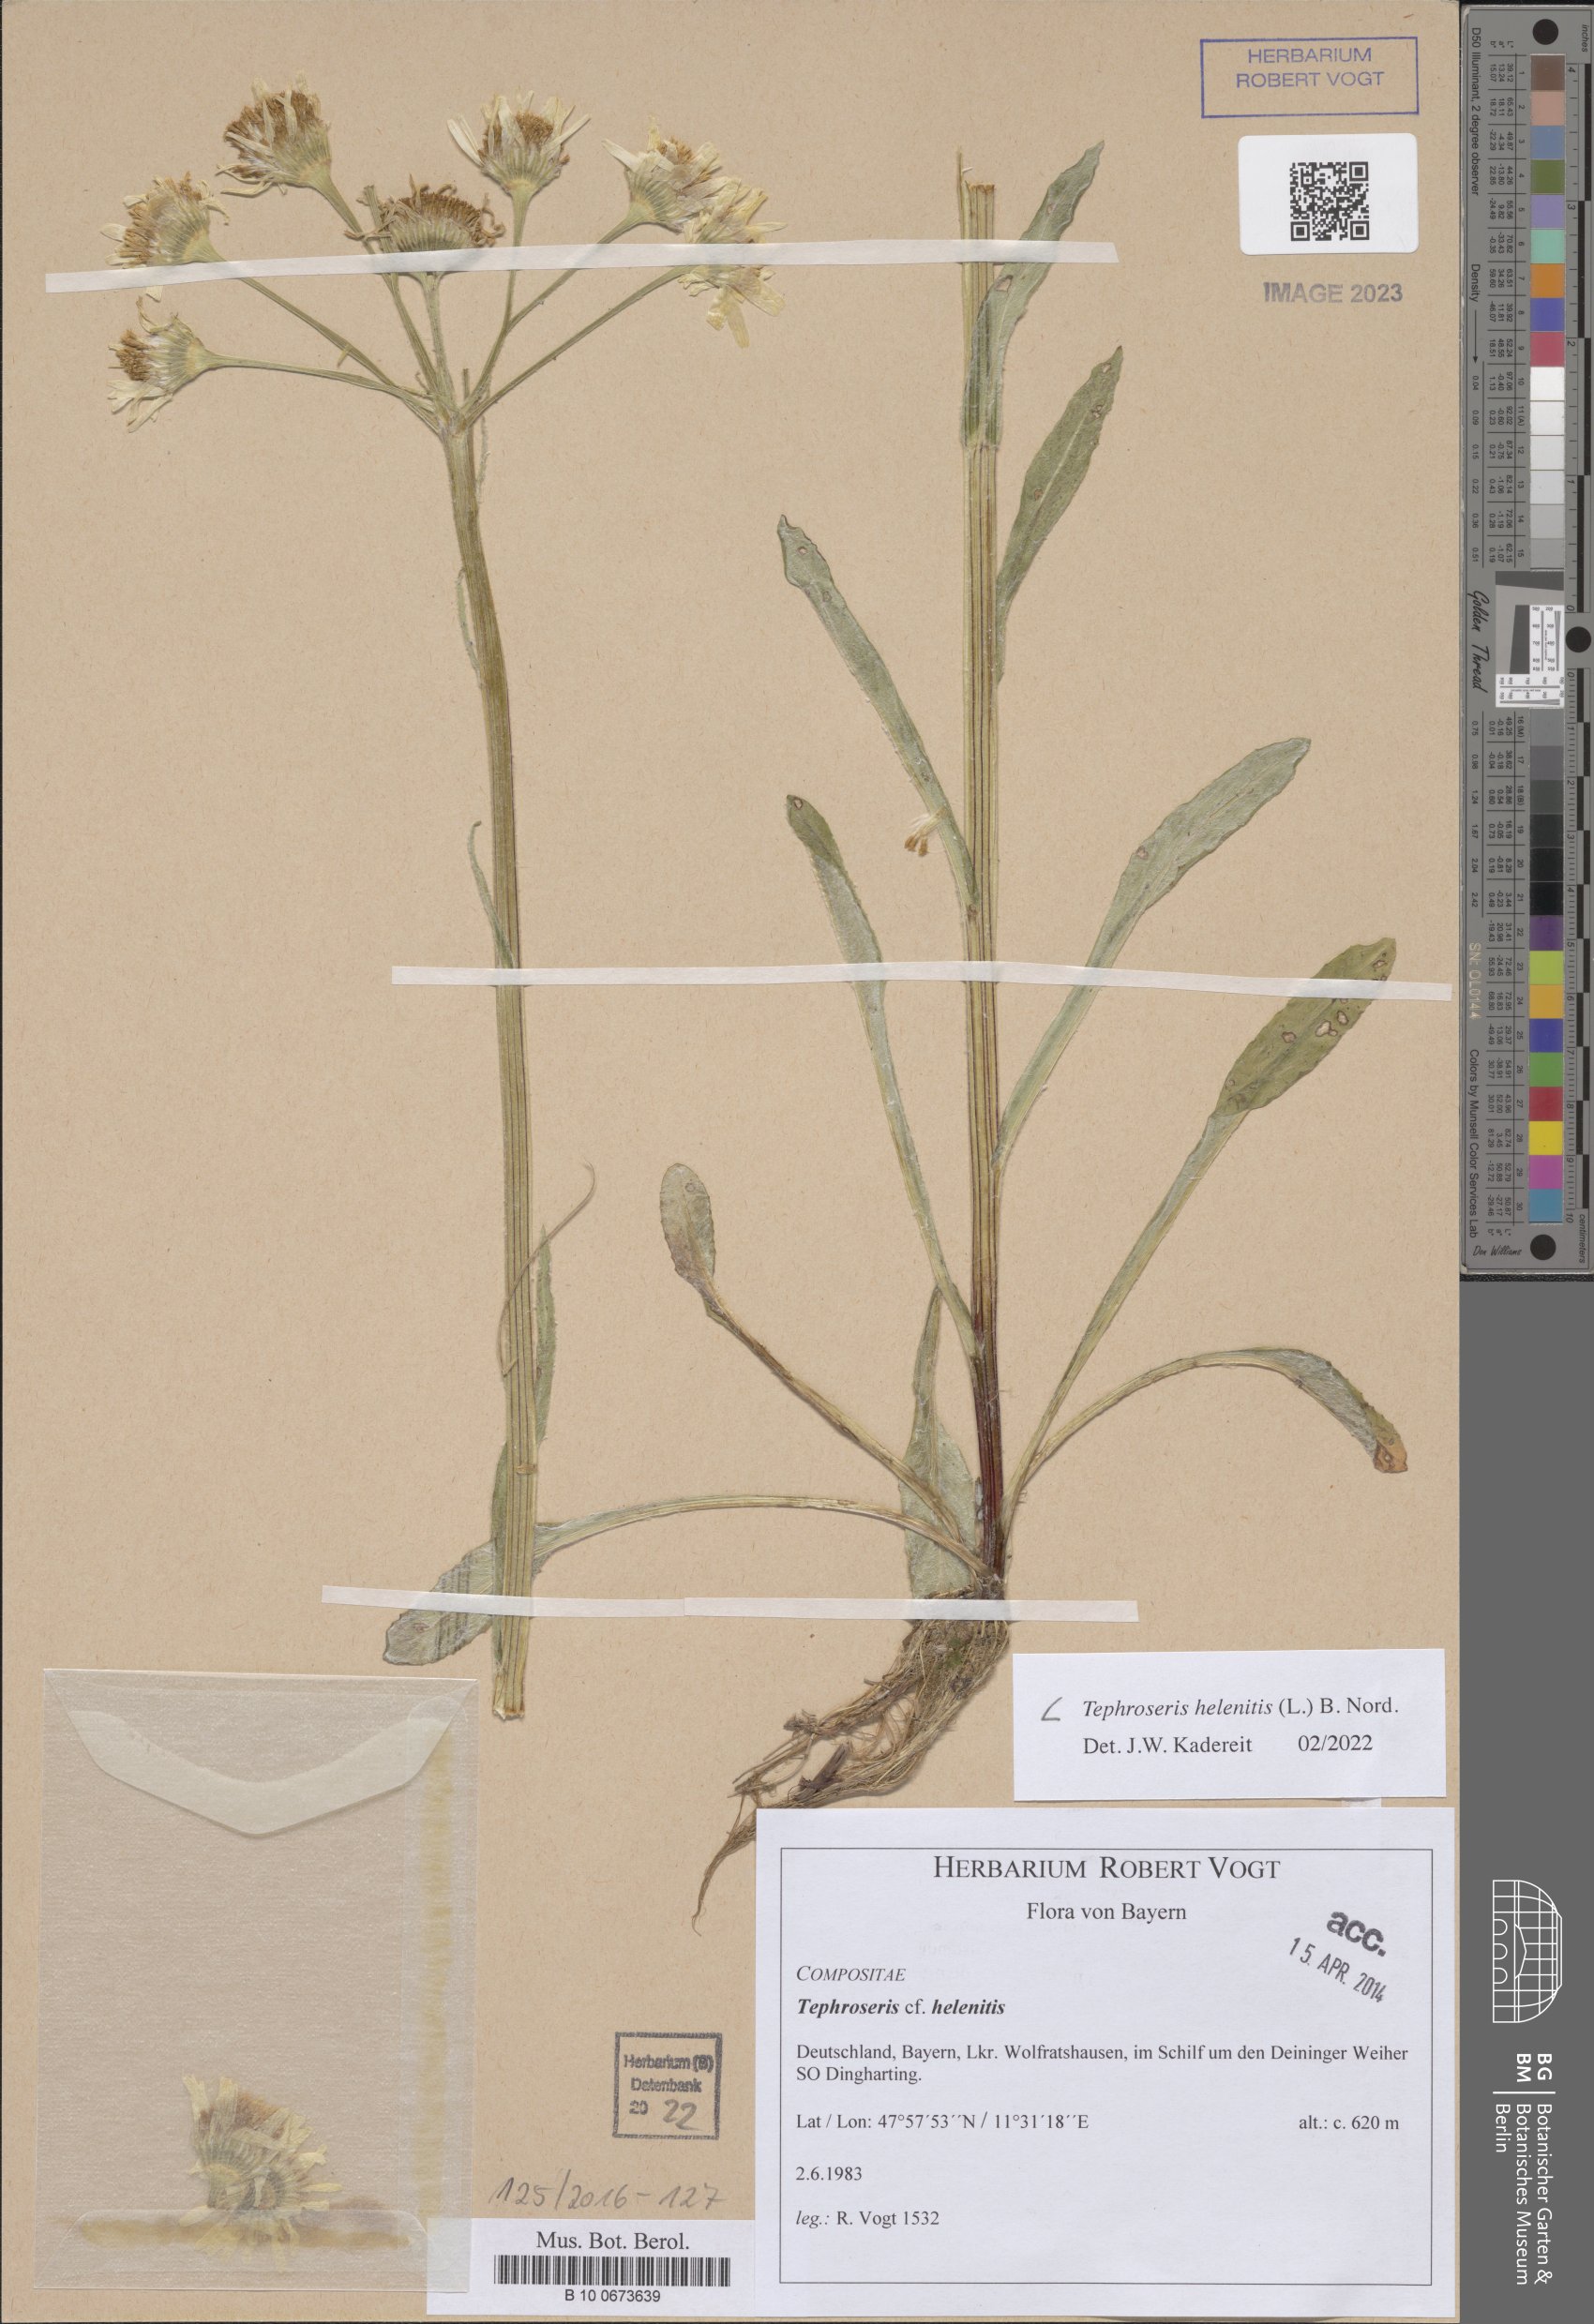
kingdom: Plantae
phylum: Tracheophyta
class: Magnoliopsida
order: Asterales
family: Asteraceae
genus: Tephroseris
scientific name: Tephroseris helenitis
